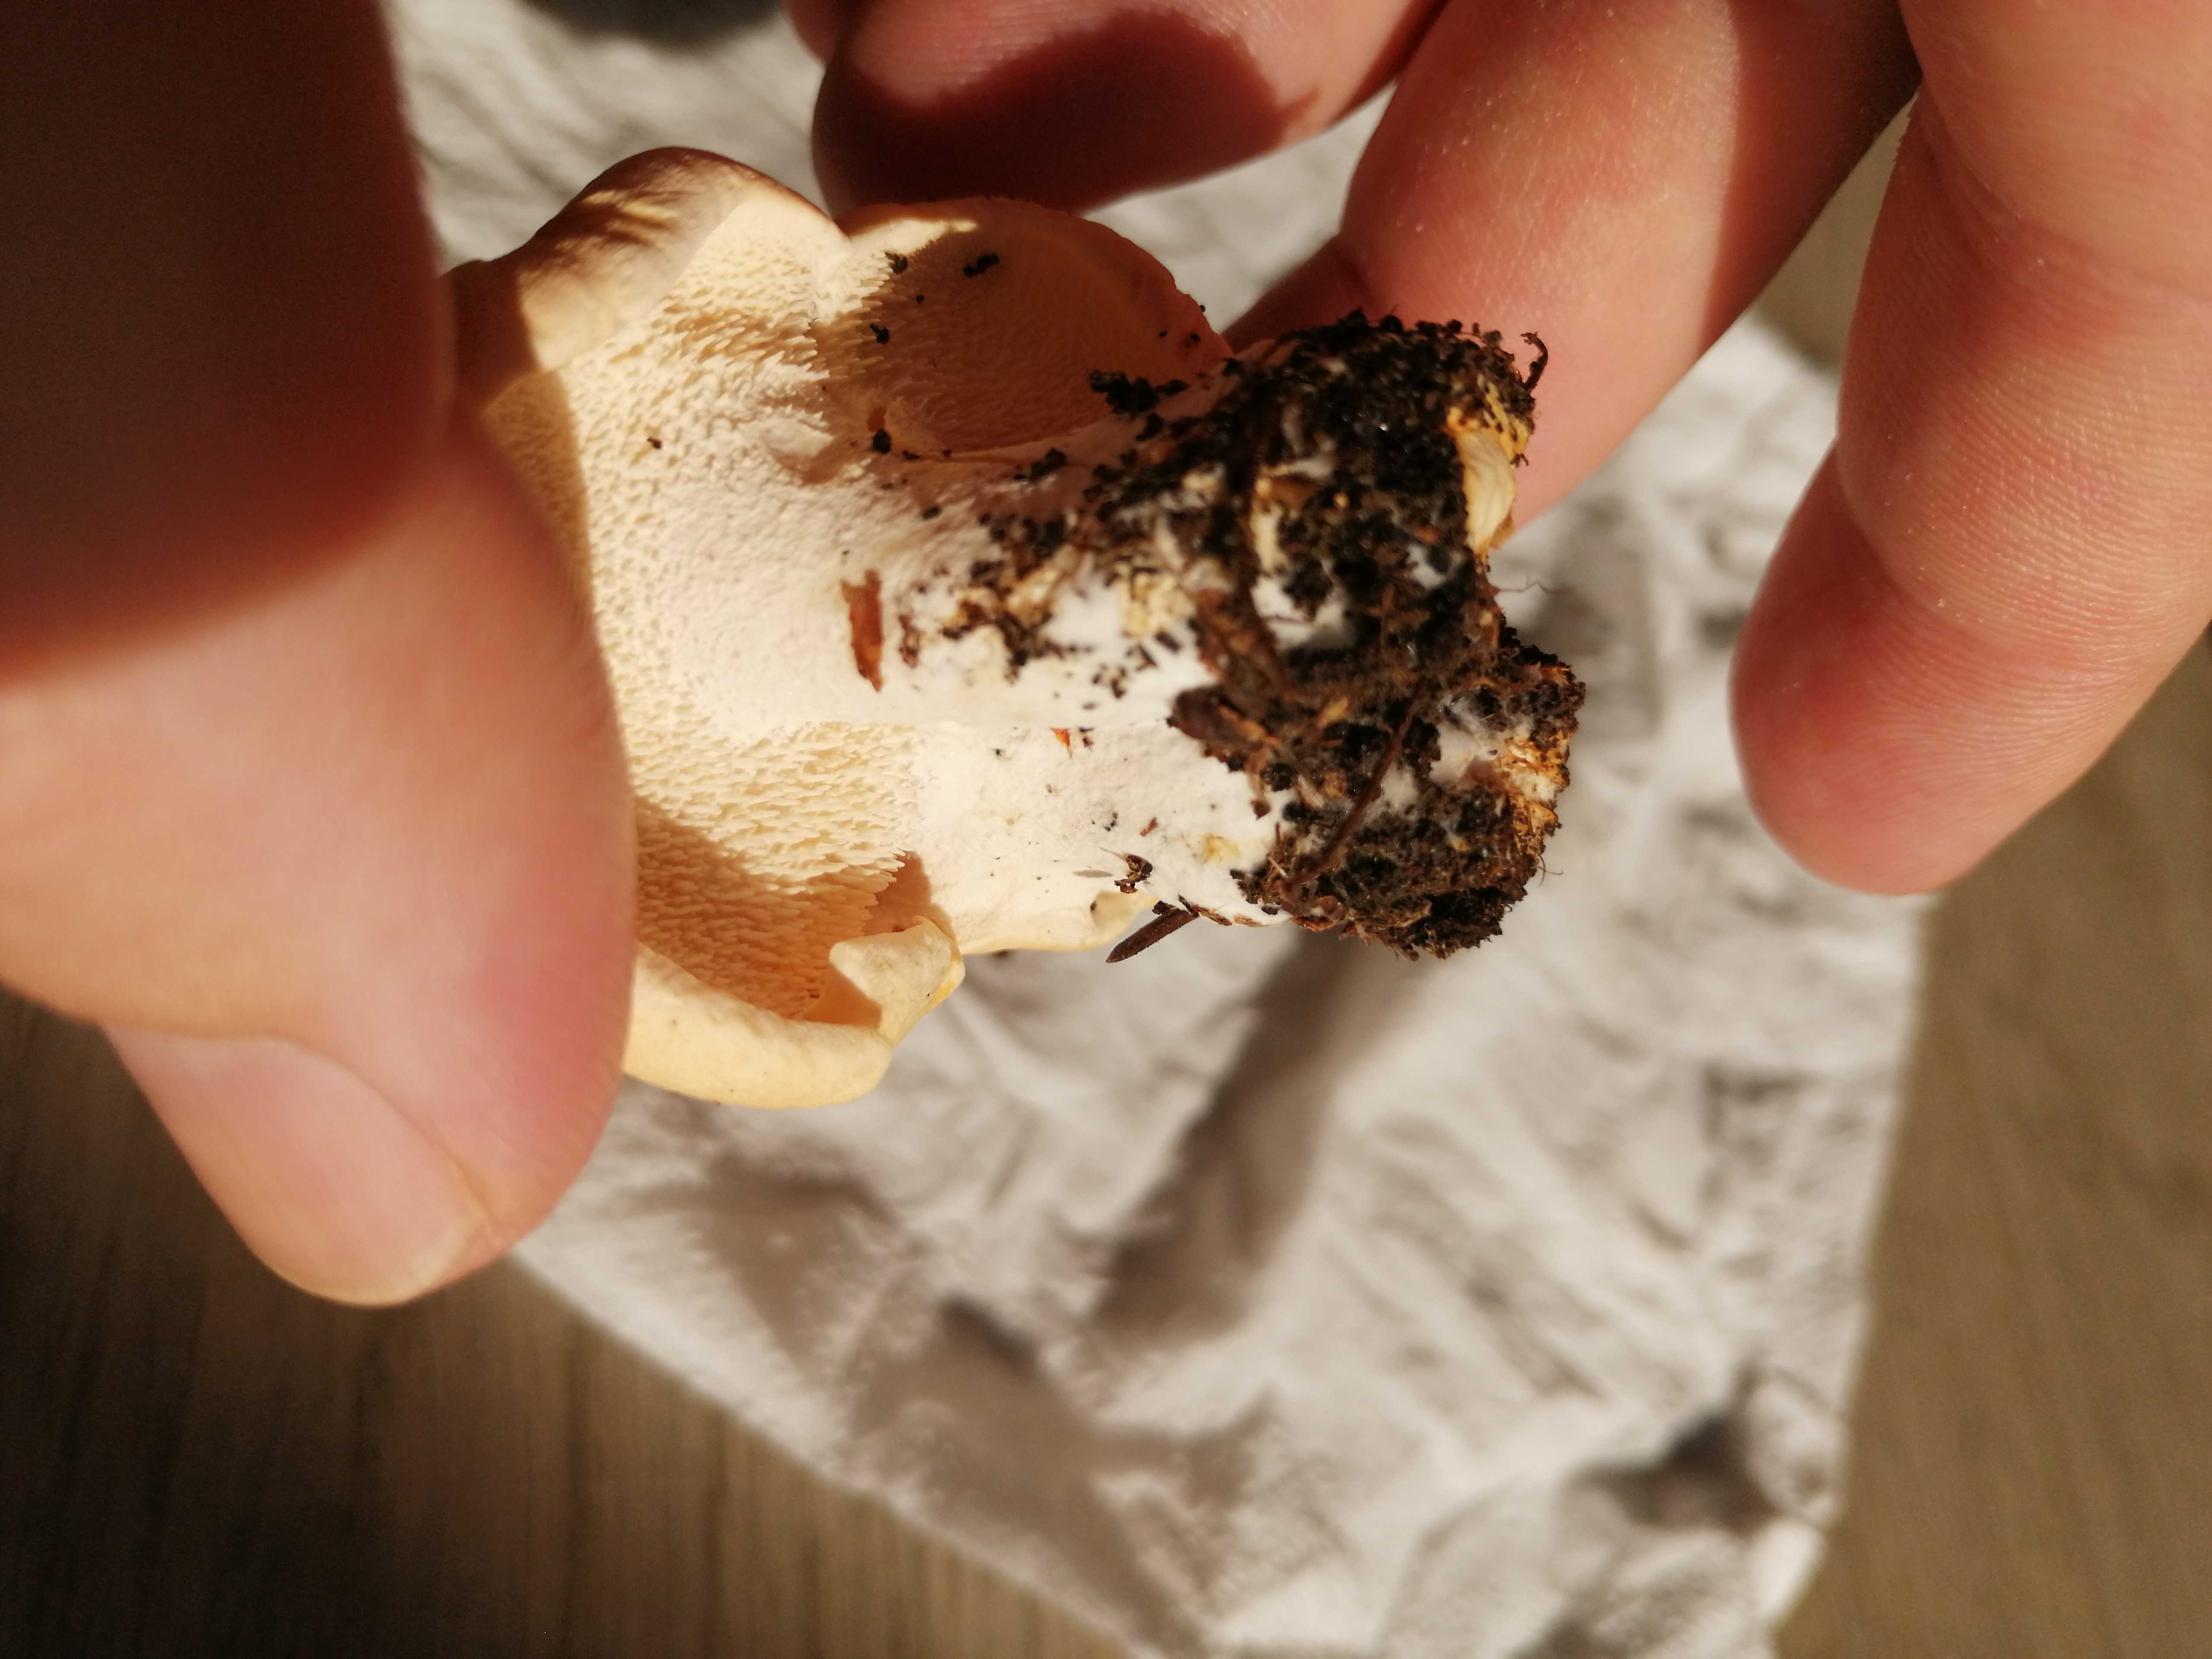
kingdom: Fungi
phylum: Basidiomycota
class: Agaricomycetes
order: Cantharellales
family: Hydnaceae
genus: Hydnum
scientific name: Hydnum
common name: pigsvamp
